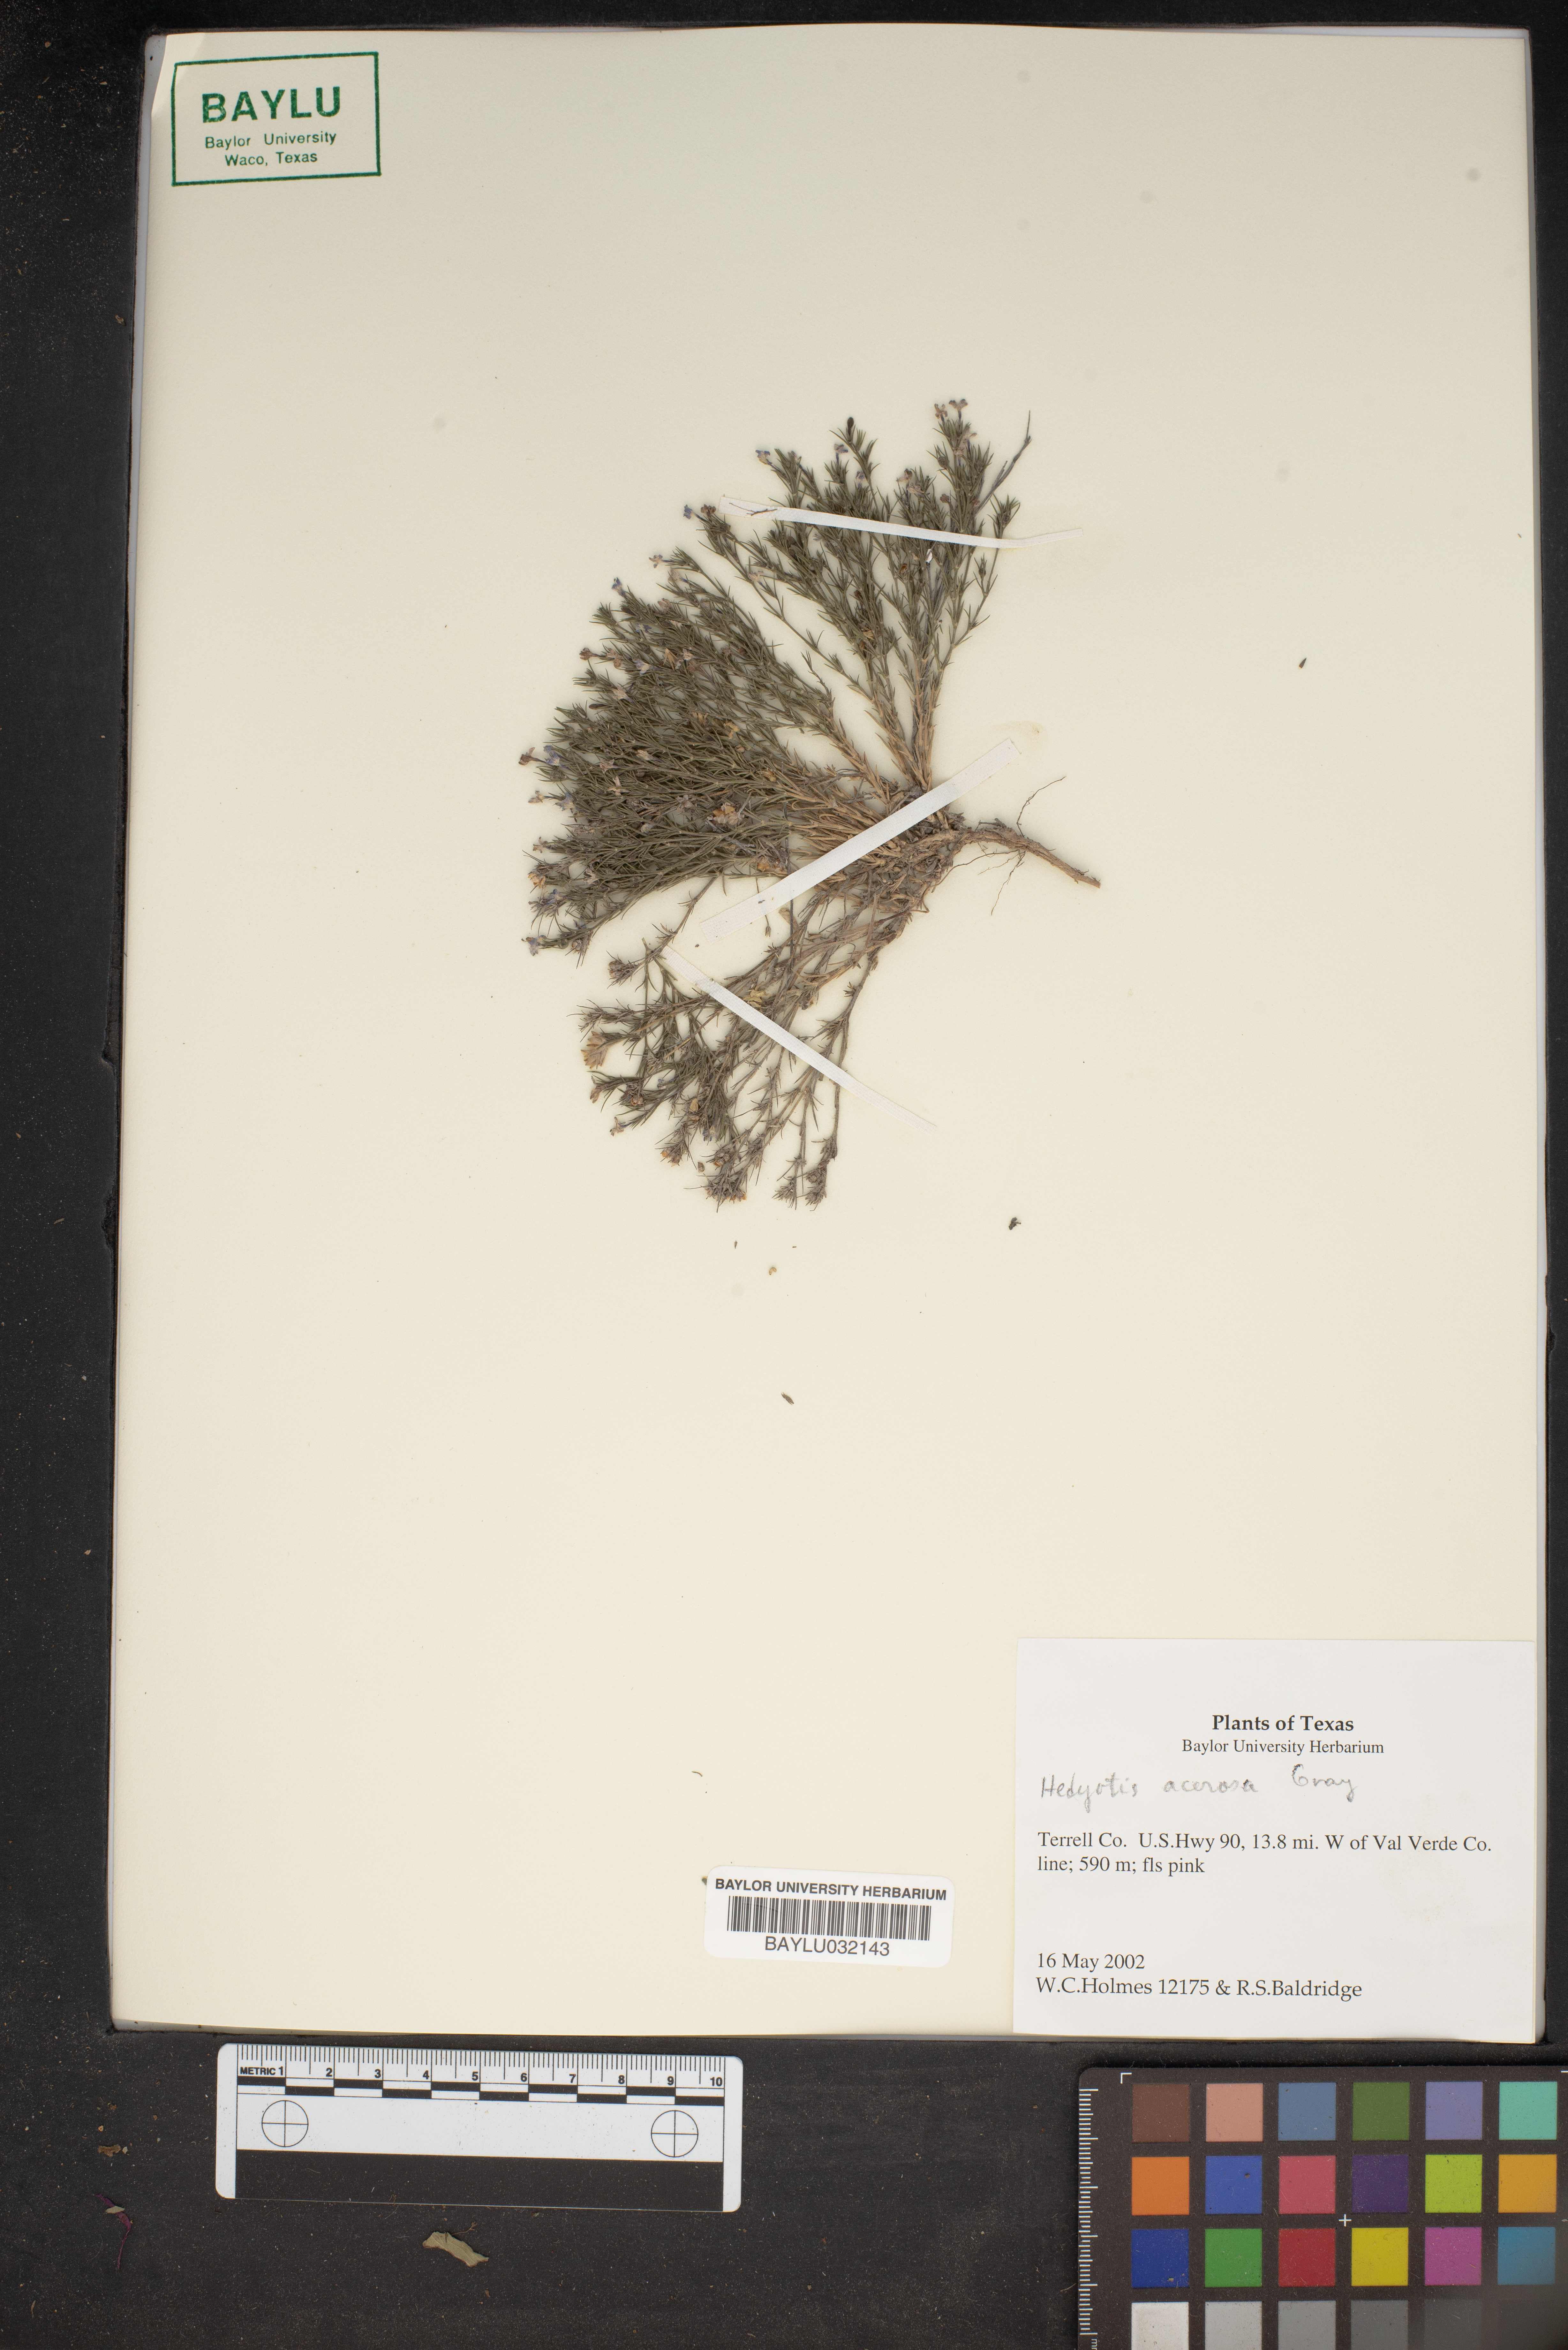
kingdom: Plantae
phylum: Tracheophyta
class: Magnoliopsida
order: Gentianales
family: Rubiaceae
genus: Houstonia
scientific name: Houstonia acerosa
